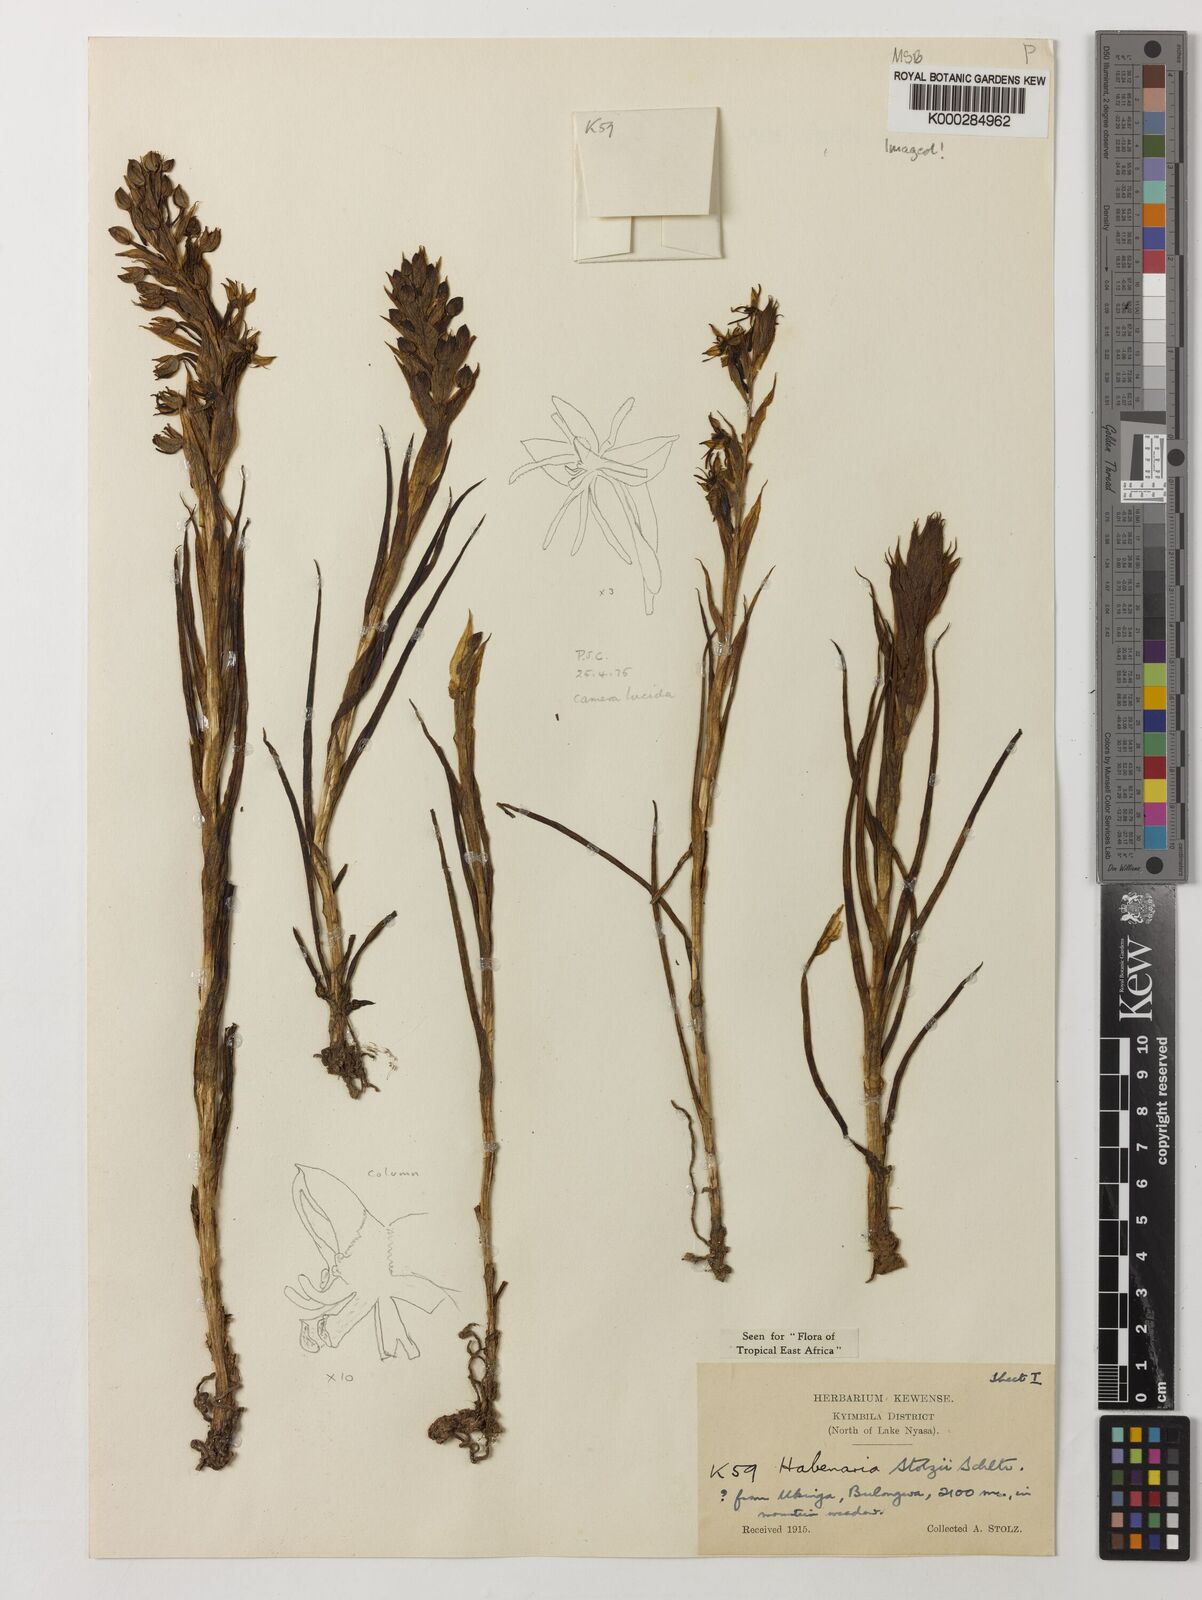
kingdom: Plantae
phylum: Tracheophyta
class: Liliopsida
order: Asparagales
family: Orchidaceae
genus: Habenaria
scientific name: Habenaria stolzii
